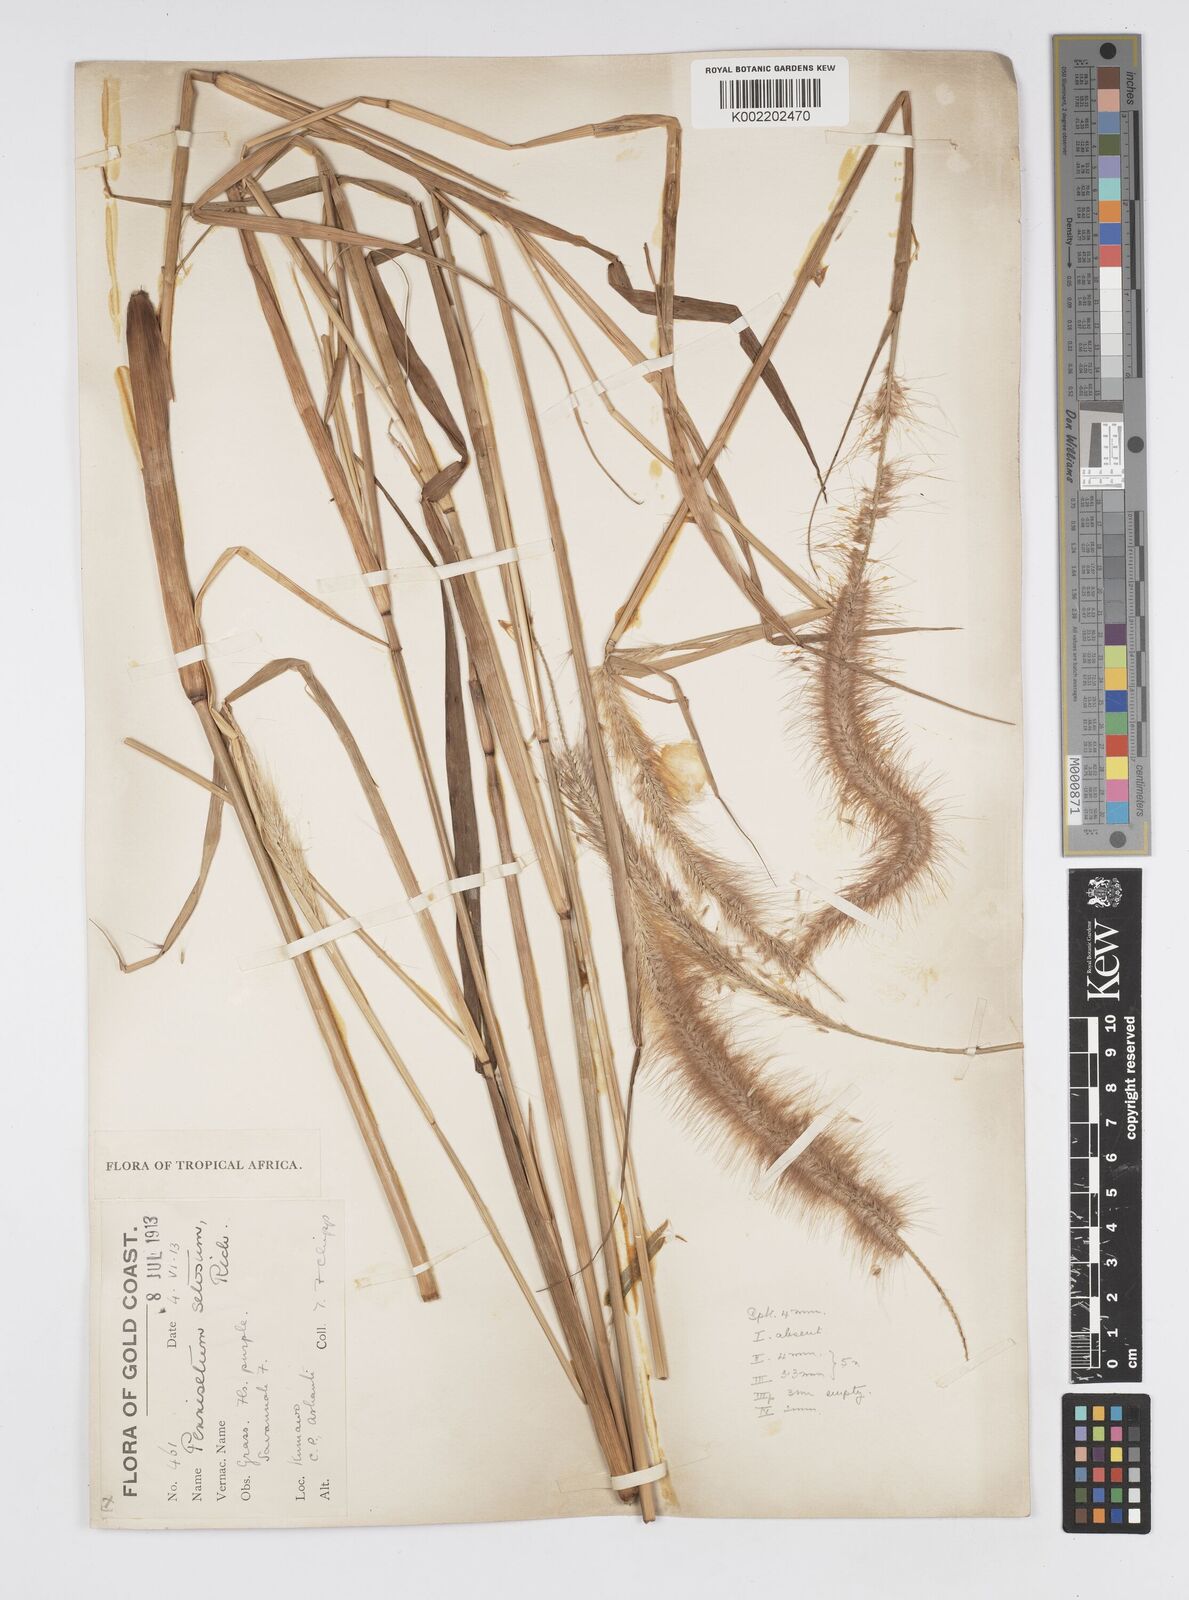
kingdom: Plantae
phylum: Tracheophyta
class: Liliopsida
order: Poales
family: Poaceae
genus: Setaria
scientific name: Setaria parviflora
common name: Knotroot bristle-grass
